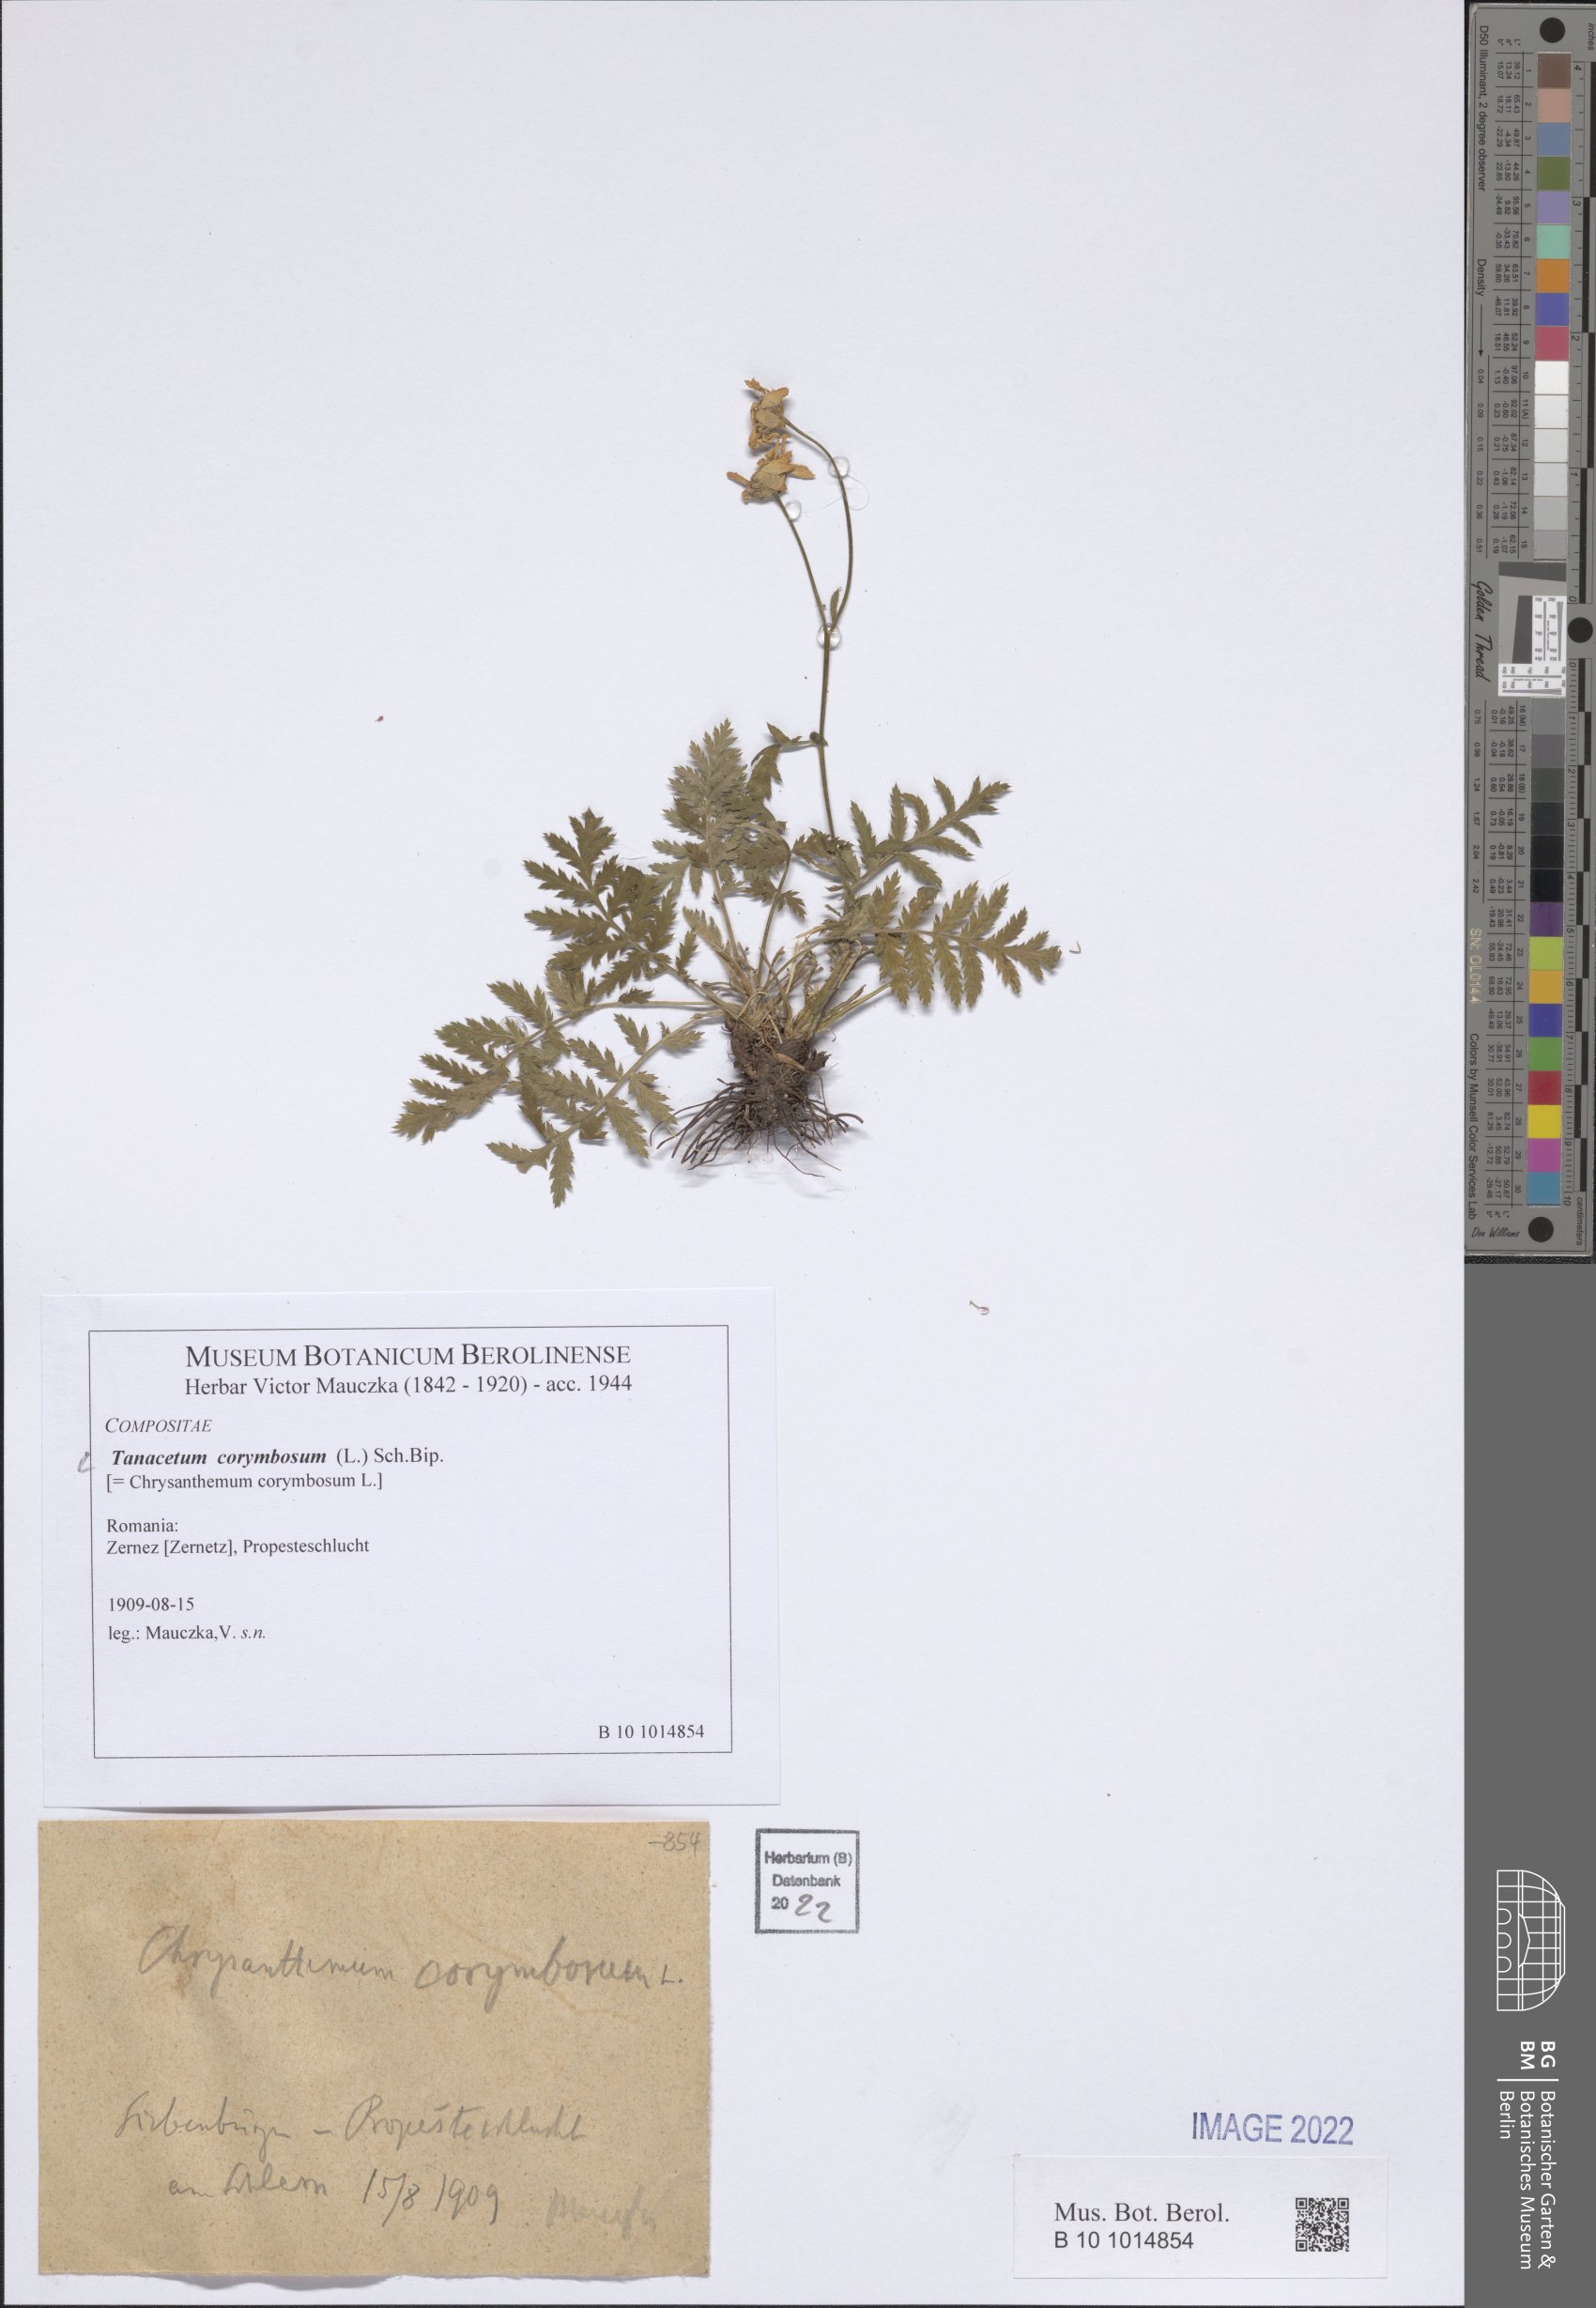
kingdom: Plantae
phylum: Tracheophyta
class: Magnoliopsida
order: Asterales
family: Asteraceae
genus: Tanacetum
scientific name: Tanacetum corymbosum
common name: Scentless feverfew
